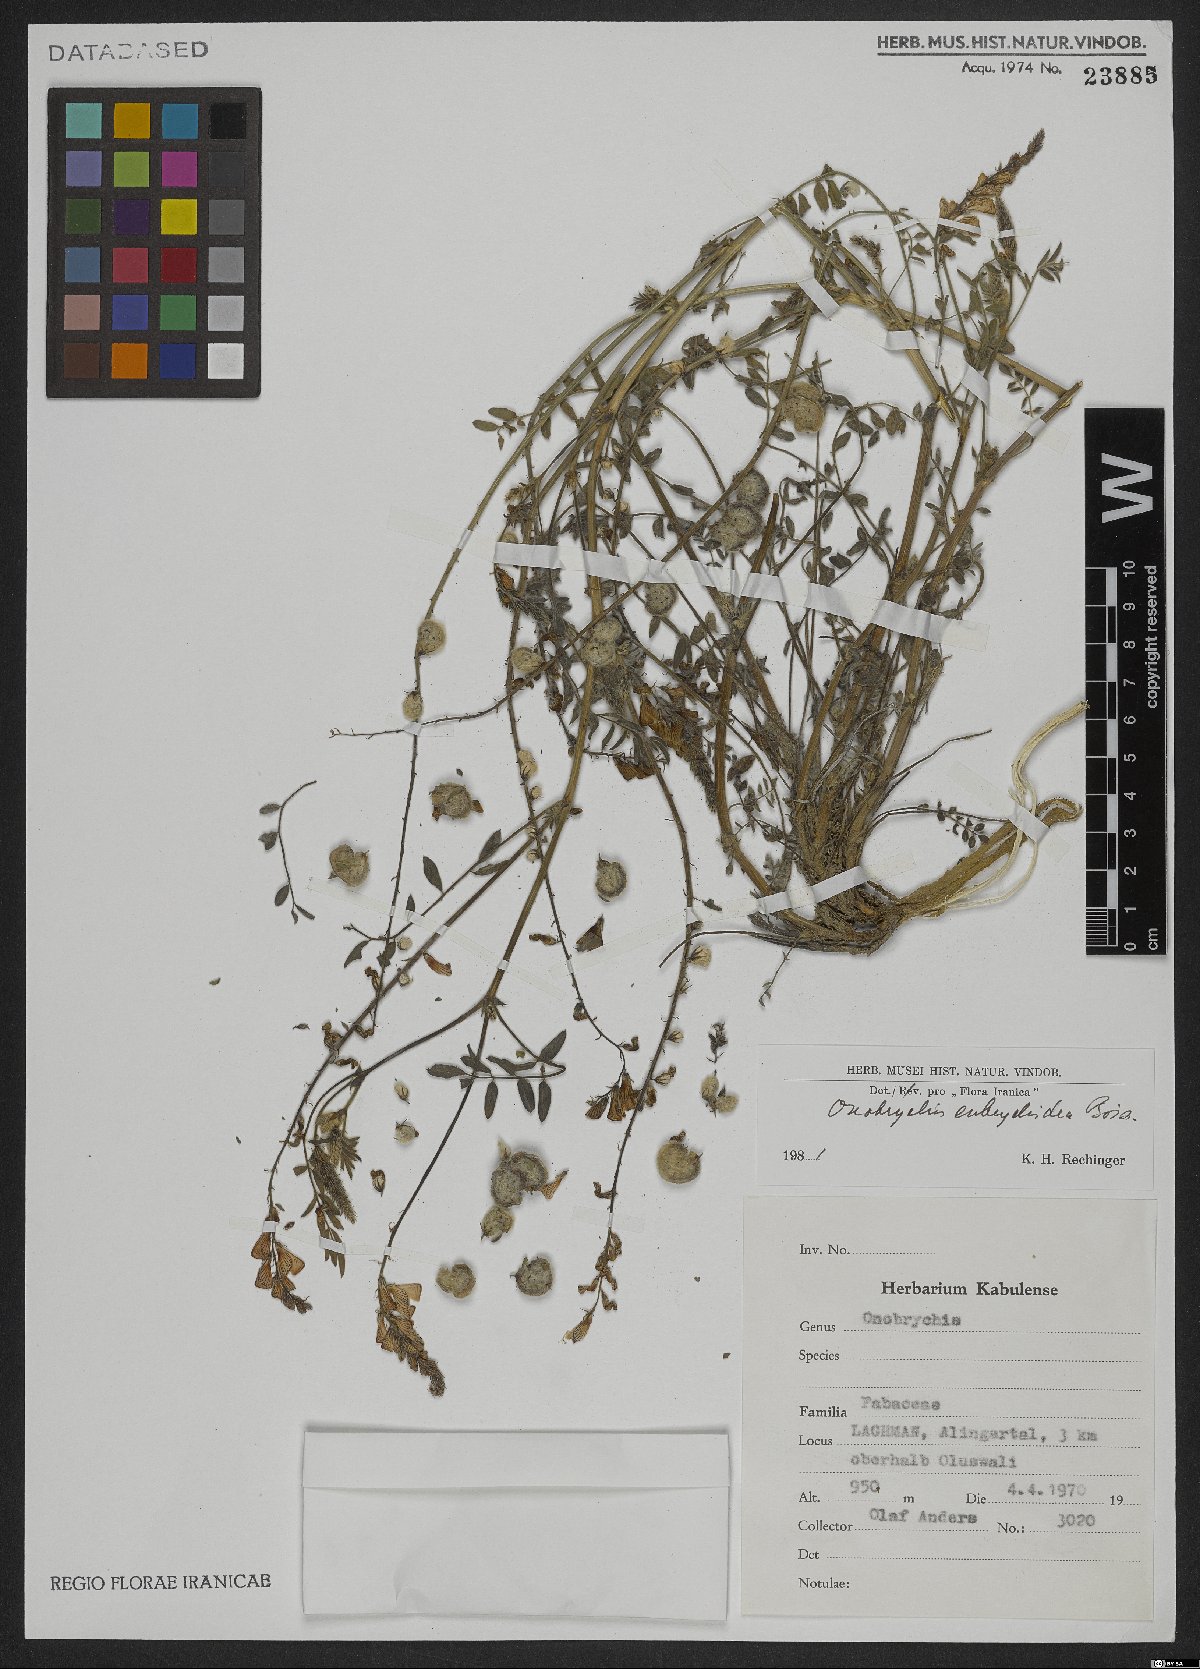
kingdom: Plantae
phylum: Tracheophyta
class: Magnoliopsida
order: Fabales
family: Fabaceae
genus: Onobrychis
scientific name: Onobrychis eubrychidea
